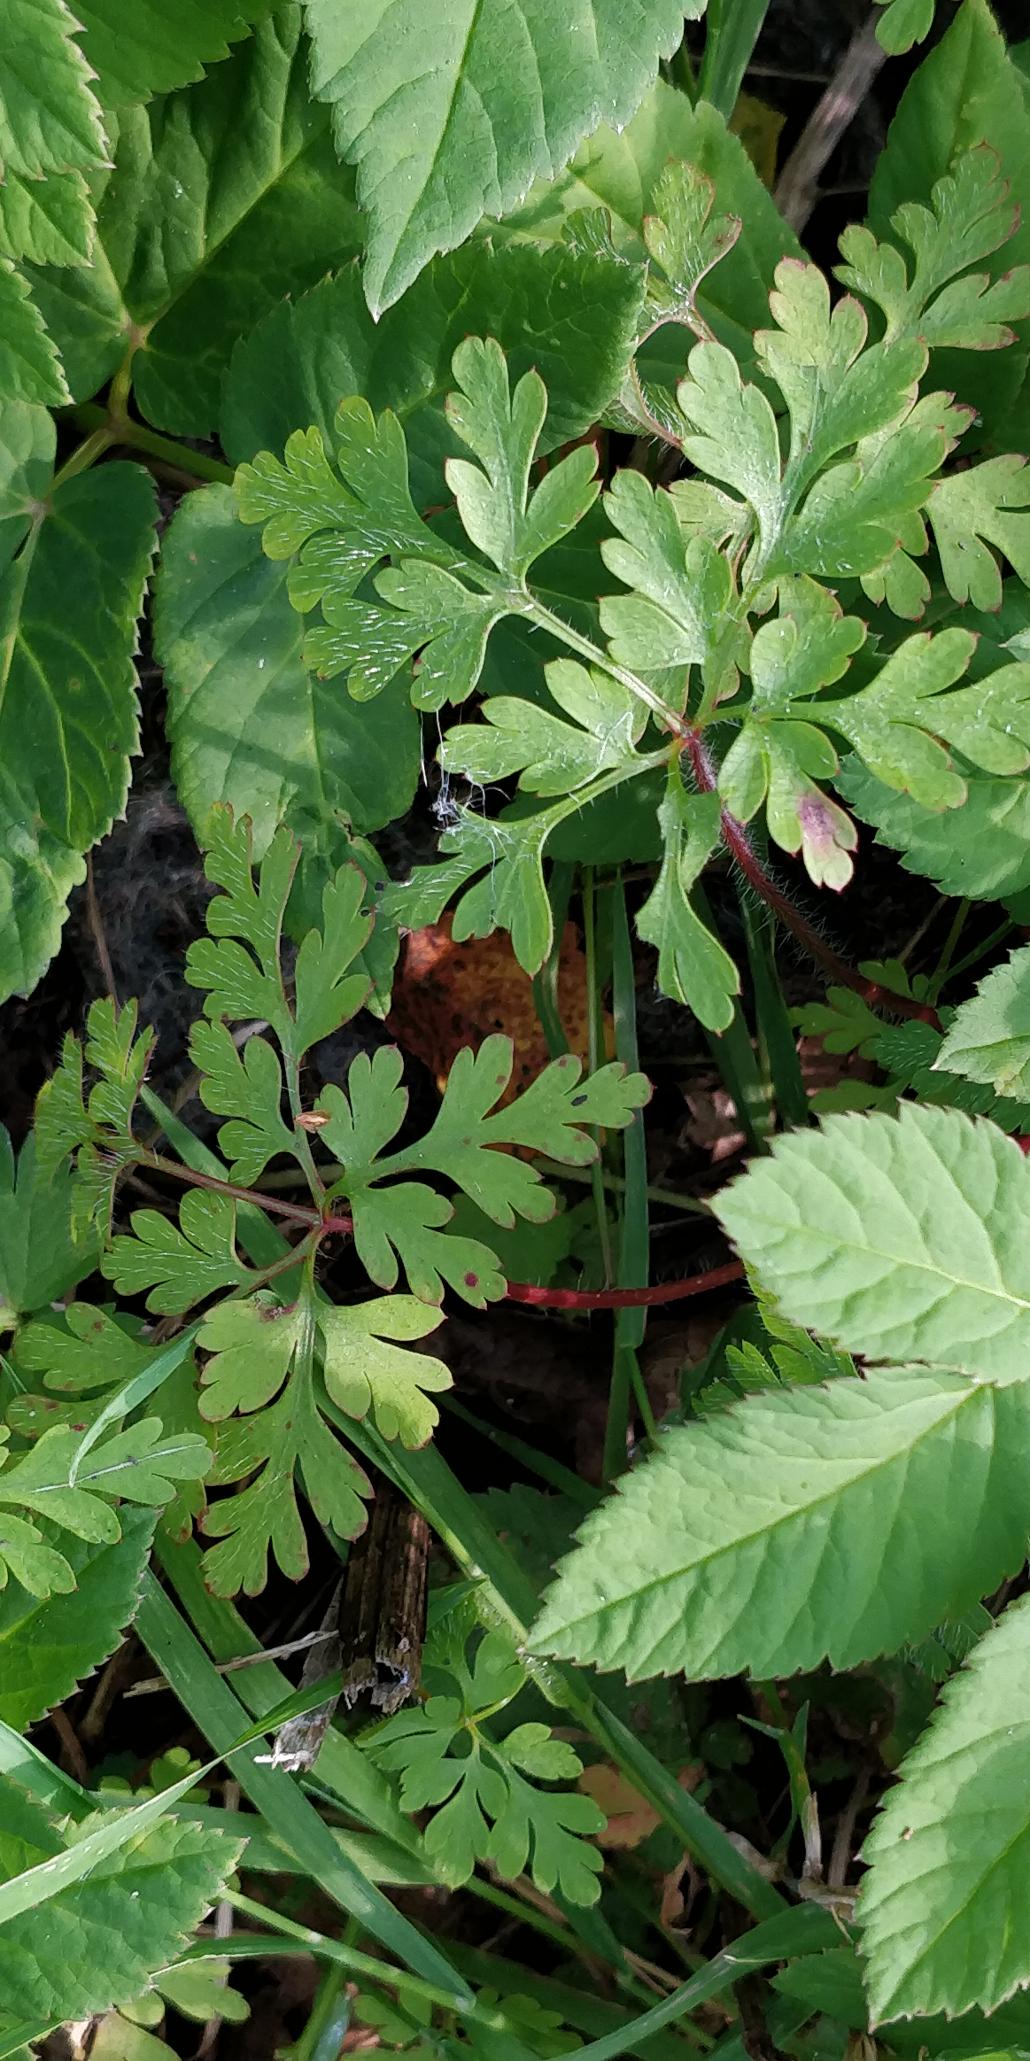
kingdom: Plantae
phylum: Tracheophyta
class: Magnoliopsida
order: Geraniales
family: Geraniaceae
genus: Geranium
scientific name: Geranium robertianum
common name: Stinkende storkenæb
